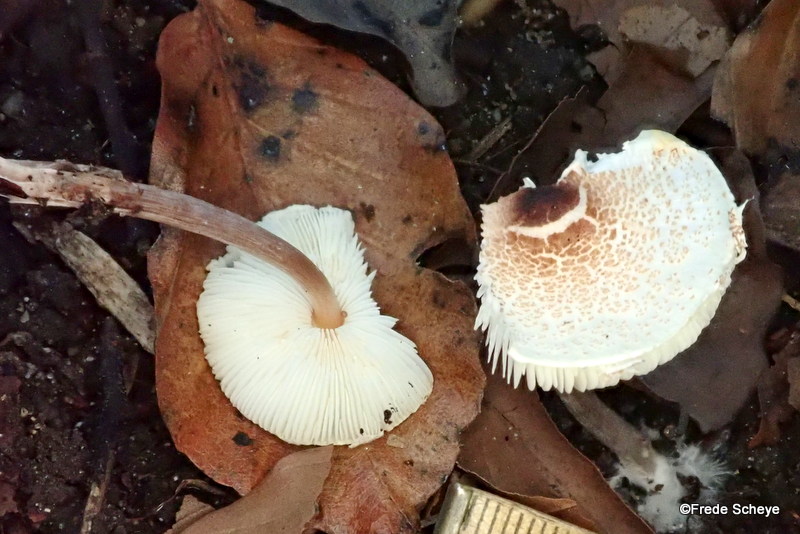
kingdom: Fungi
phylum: Basidiomycota
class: Agaricomycetes
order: Agaricales
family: Agaricaceae
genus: Lepiota
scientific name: Lepiota cristata
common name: stinkende parasolhat
